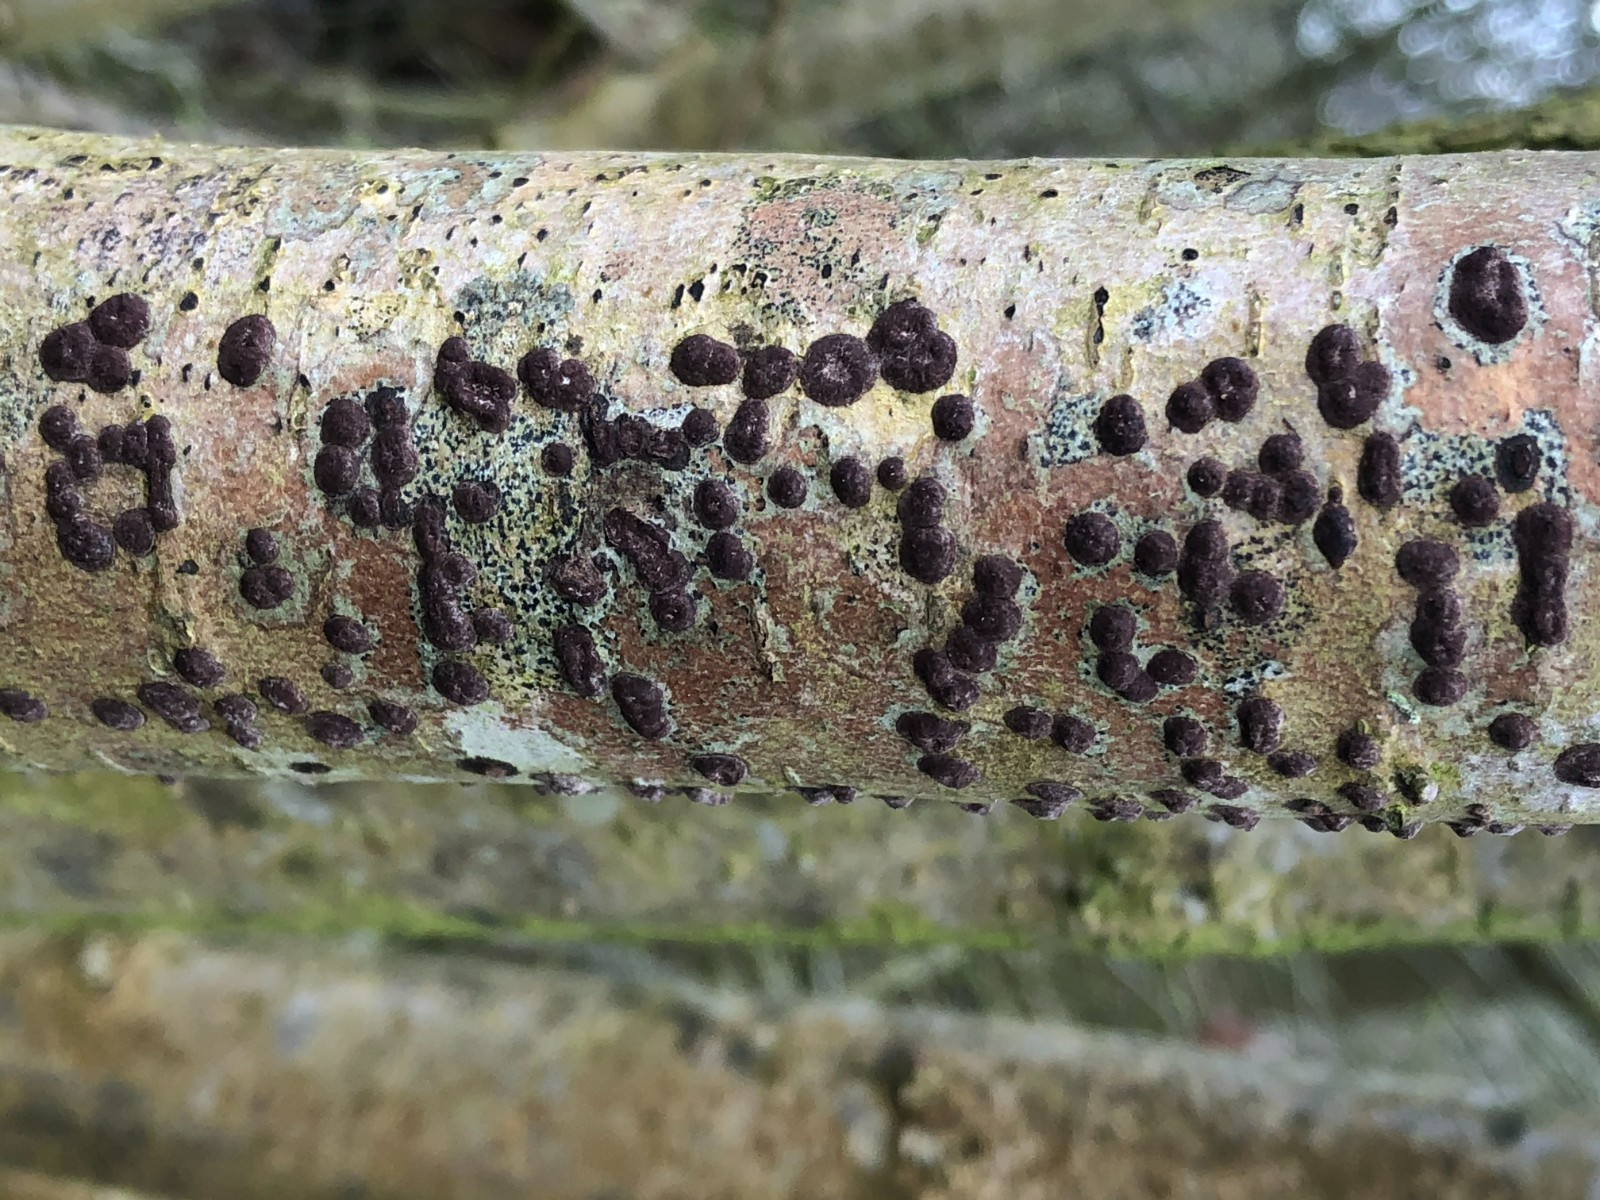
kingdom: Fungi
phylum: Ascomycota
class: Sordariomycetes
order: Xylariales
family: Hypoxylaceae
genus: Hypoxylon
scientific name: Hypoxylon fuscum
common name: kegleformet kulbær
